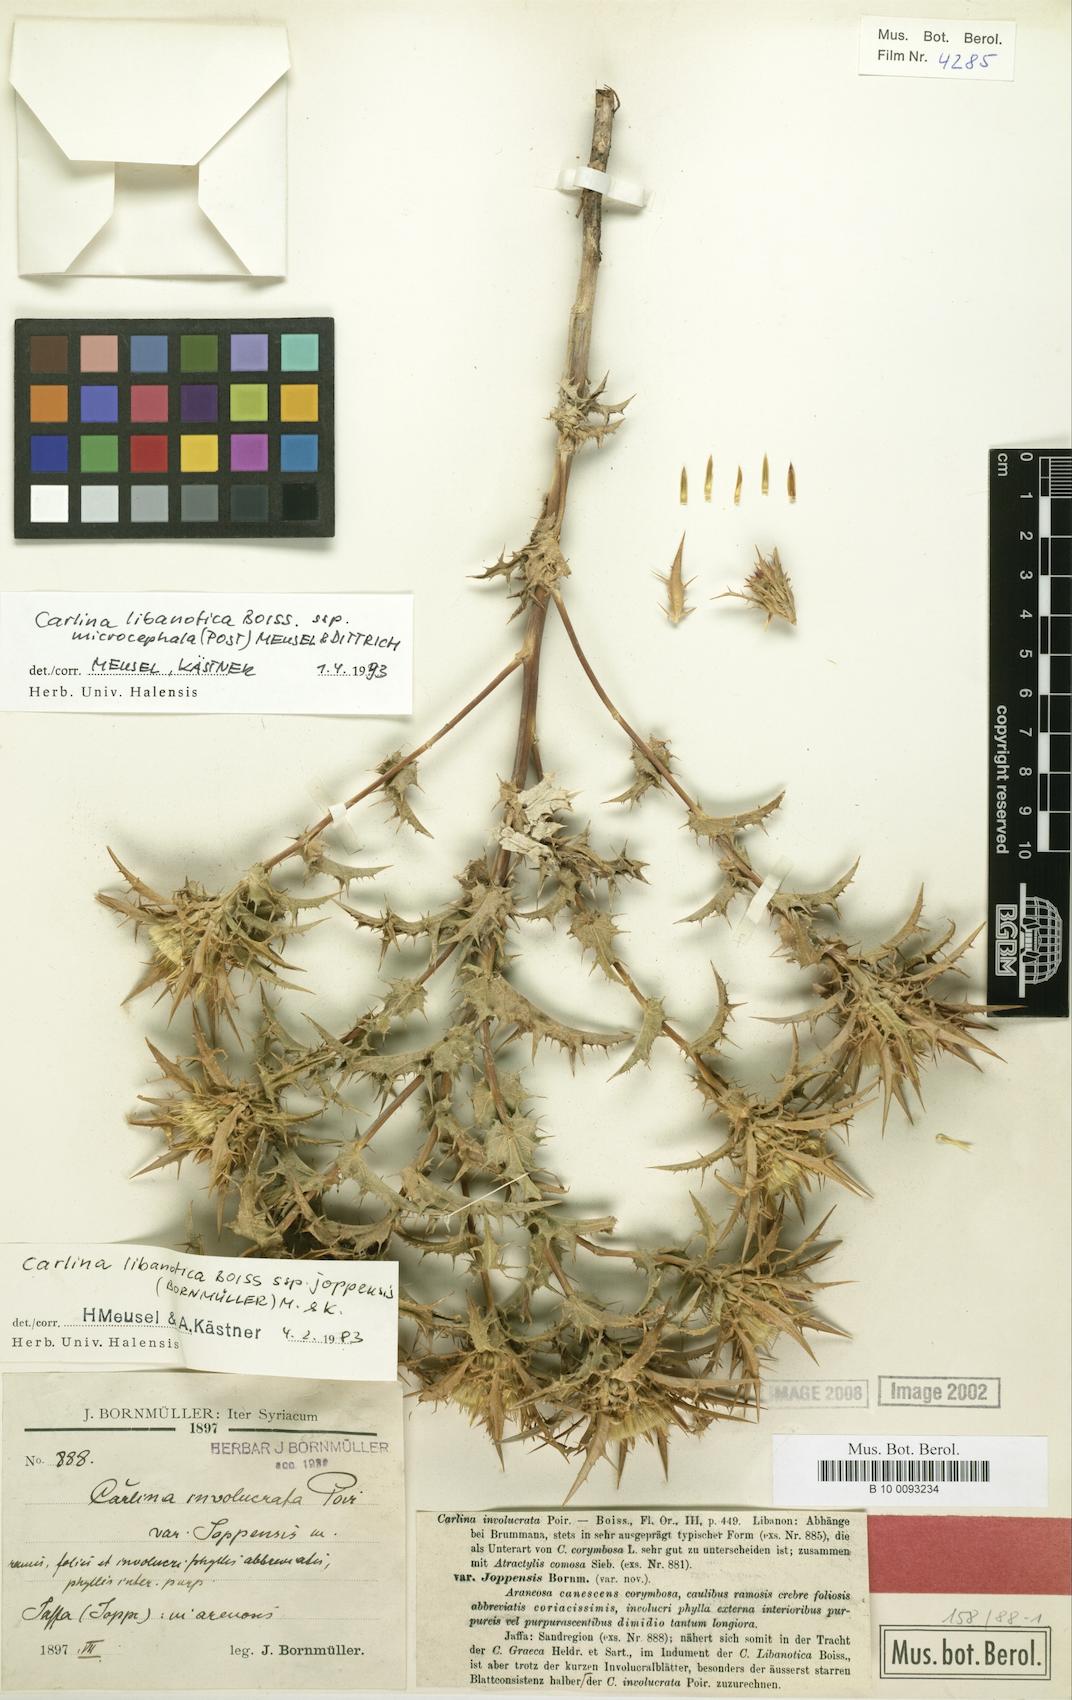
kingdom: Plantae
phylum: Tracheophyta
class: Magnoliopsida
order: Asterales
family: Asteraceae
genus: Carlina
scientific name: Carlina oligocephala
